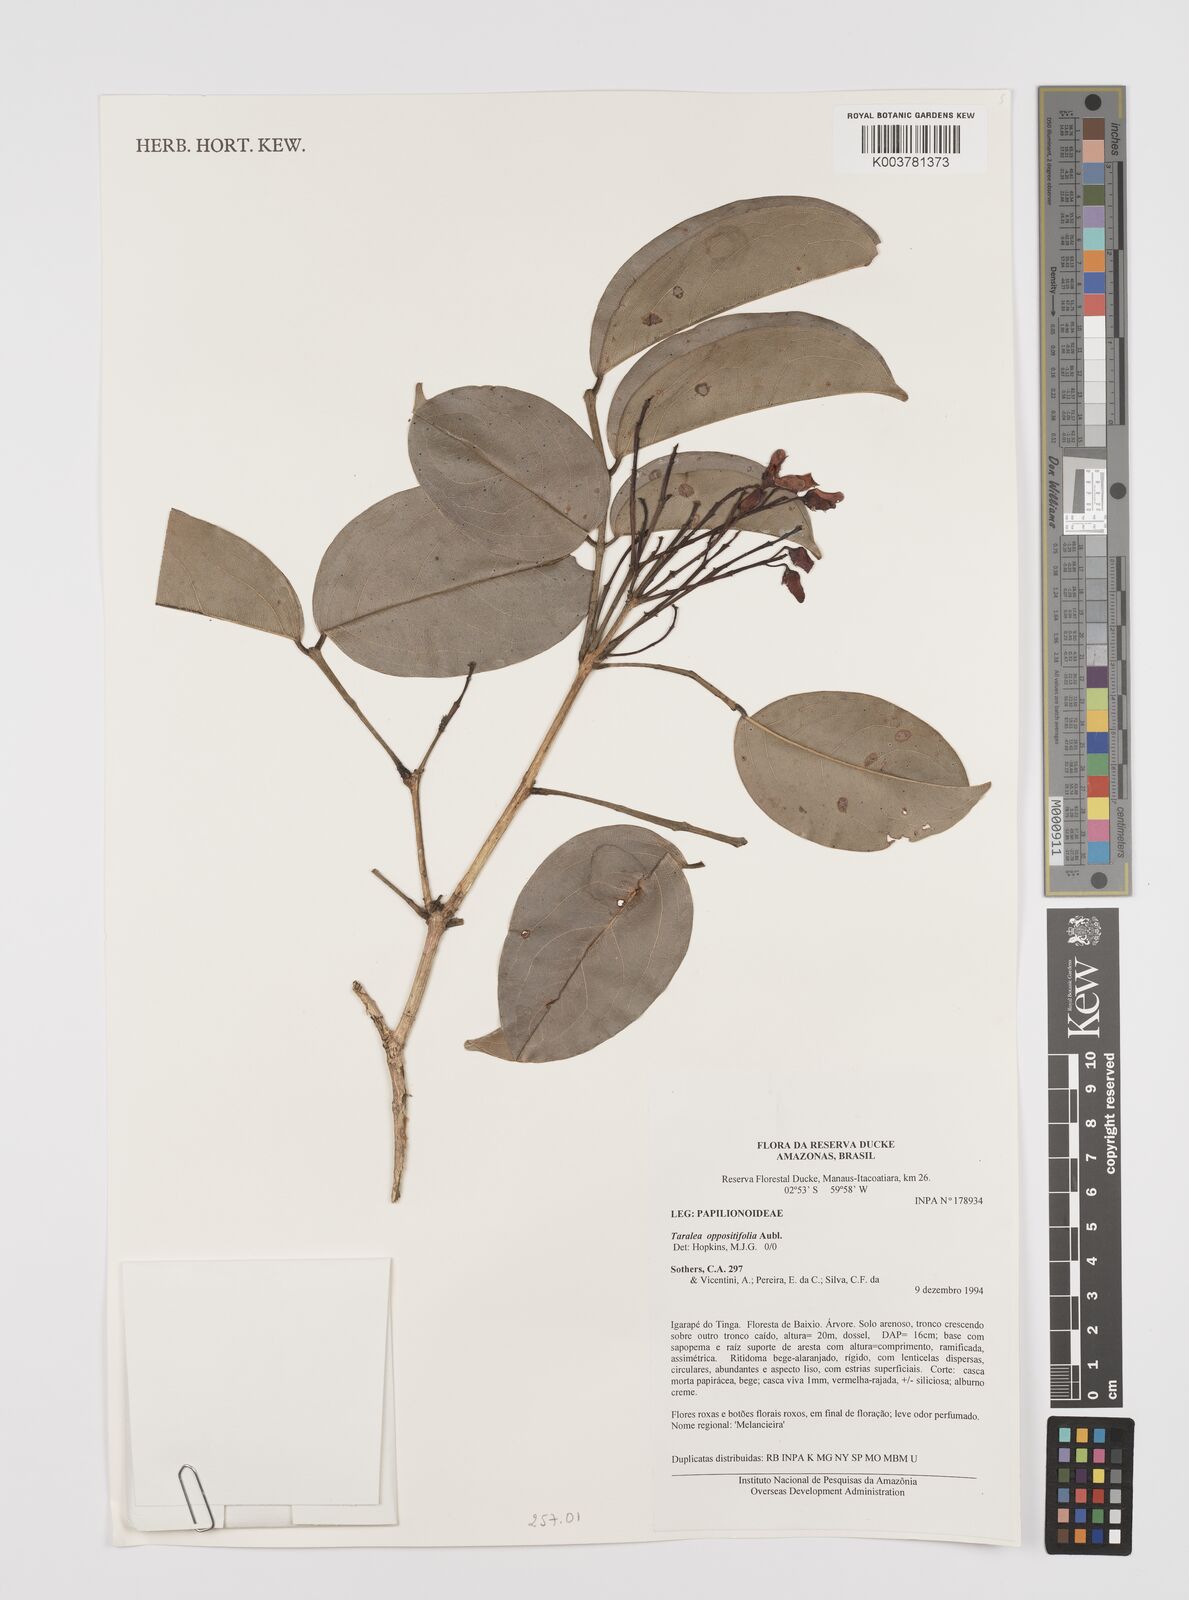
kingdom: Plantae
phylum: Tracheophyta
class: Magnoliopsida
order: Fabales
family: Fabaceae
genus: Taralea
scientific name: Taralea oppositifolia
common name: Tonka
